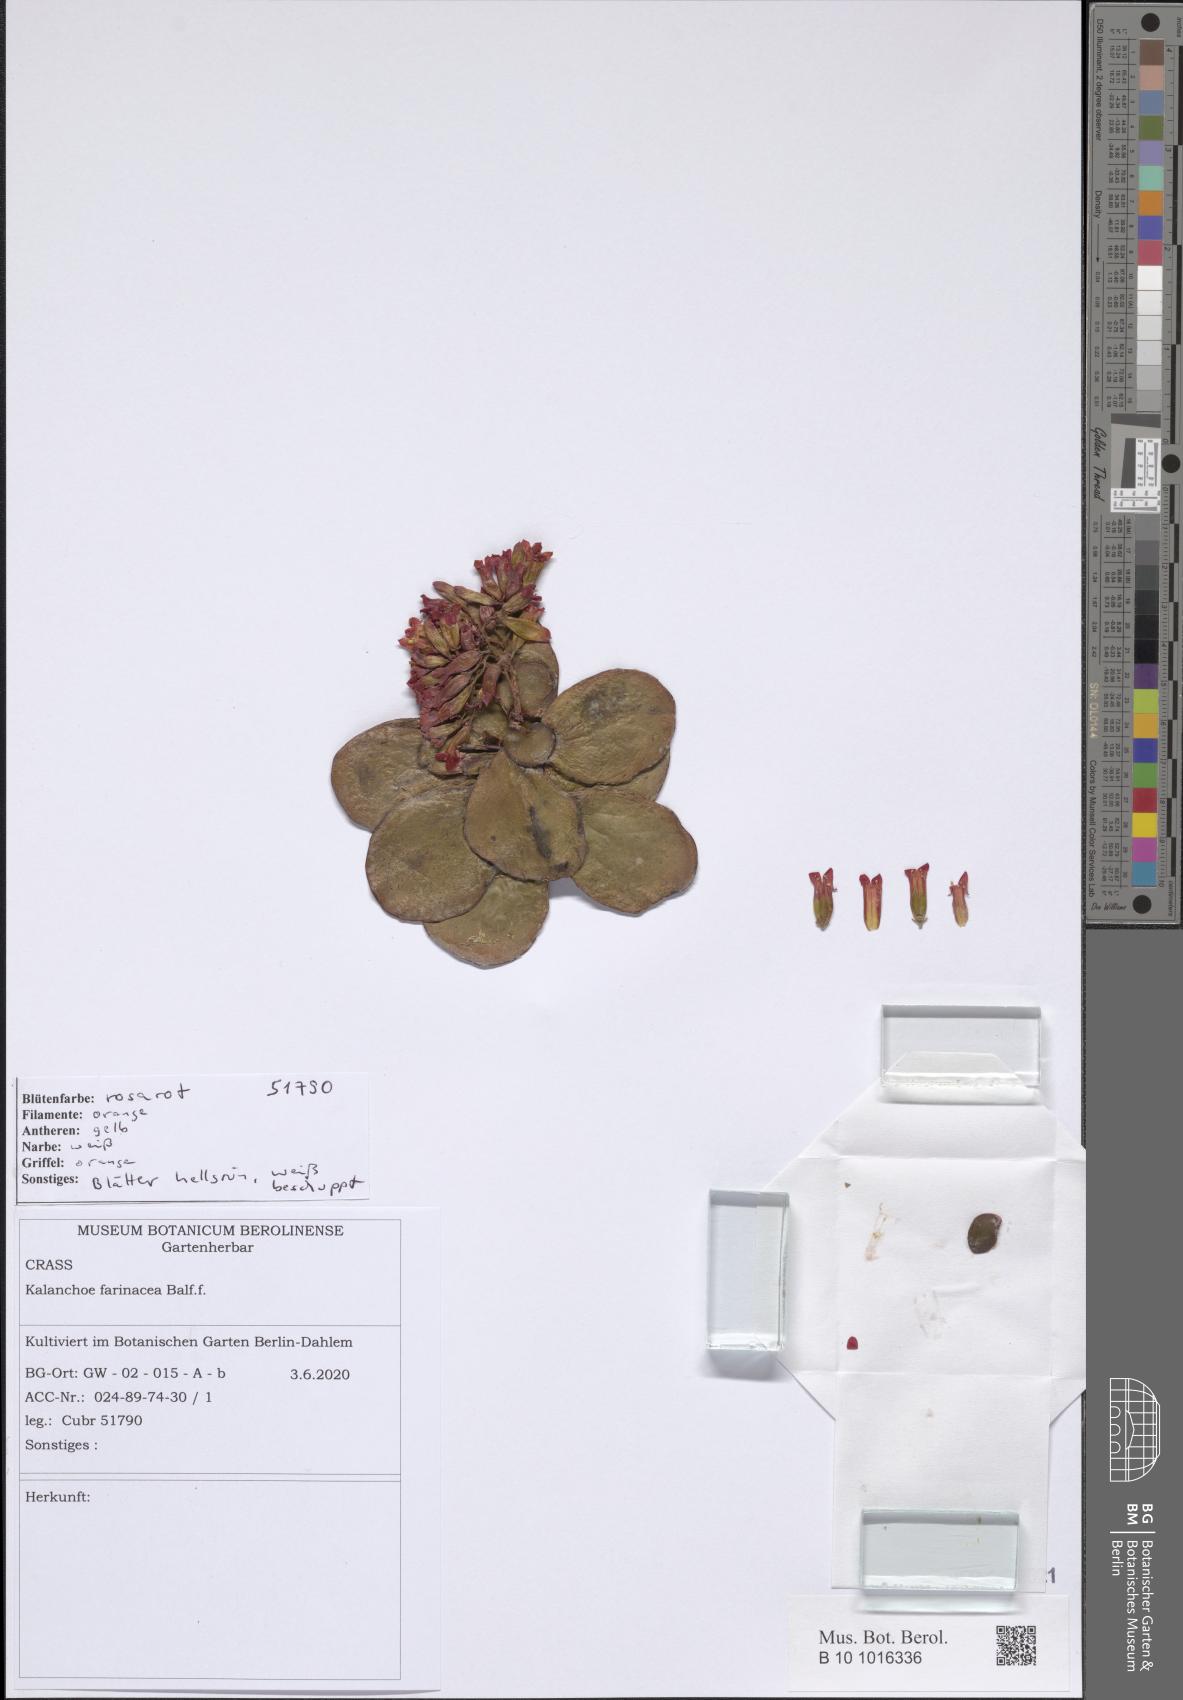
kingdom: Plantae
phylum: Tracheophyta
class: Magnoliopsida
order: Saxifragales
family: Crassulaceae
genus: Kalanchoe
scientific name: Kalanchoe farinacea
